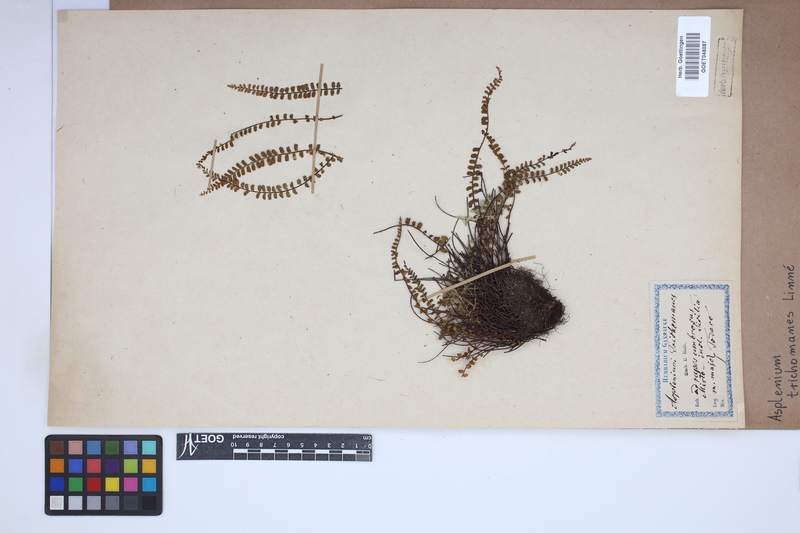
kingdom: Plantae
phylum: Tracheophyta
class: Polypodiopsida
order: Polypodiales
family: Aspleniaceae
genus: Asplenium
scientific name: Asplenium trichomanes
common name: Maidenhair spleenwort
